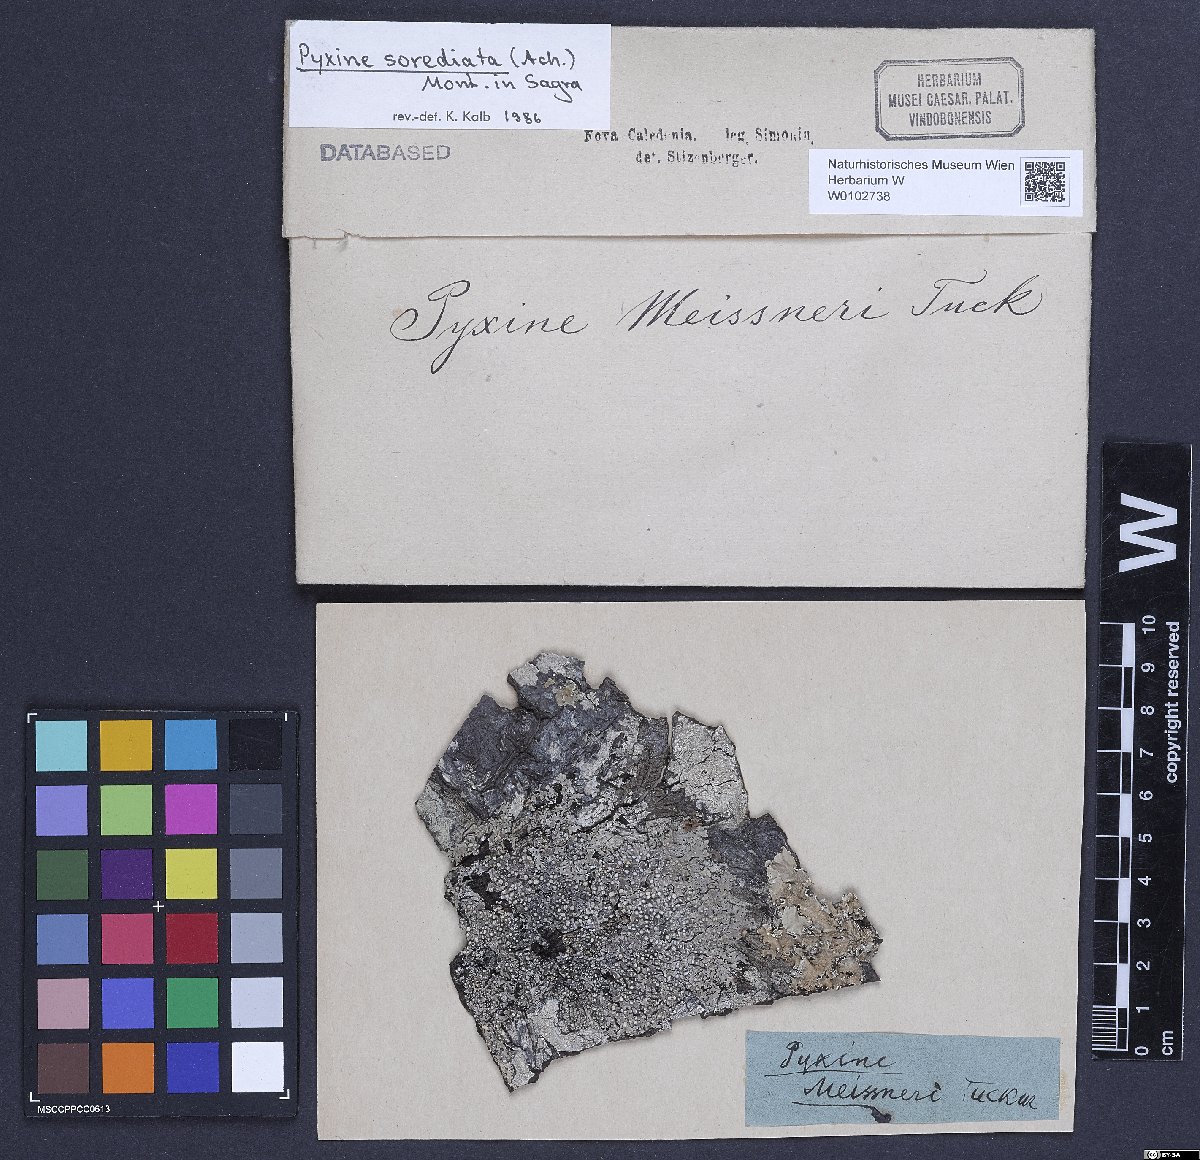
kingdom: Fungi
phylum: Ascomycota
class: Lecanoromycetes
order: Caliciales
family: Caliciaceae
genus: Pyxine
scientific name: Pyxine sorediata
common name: Mustard lichen
